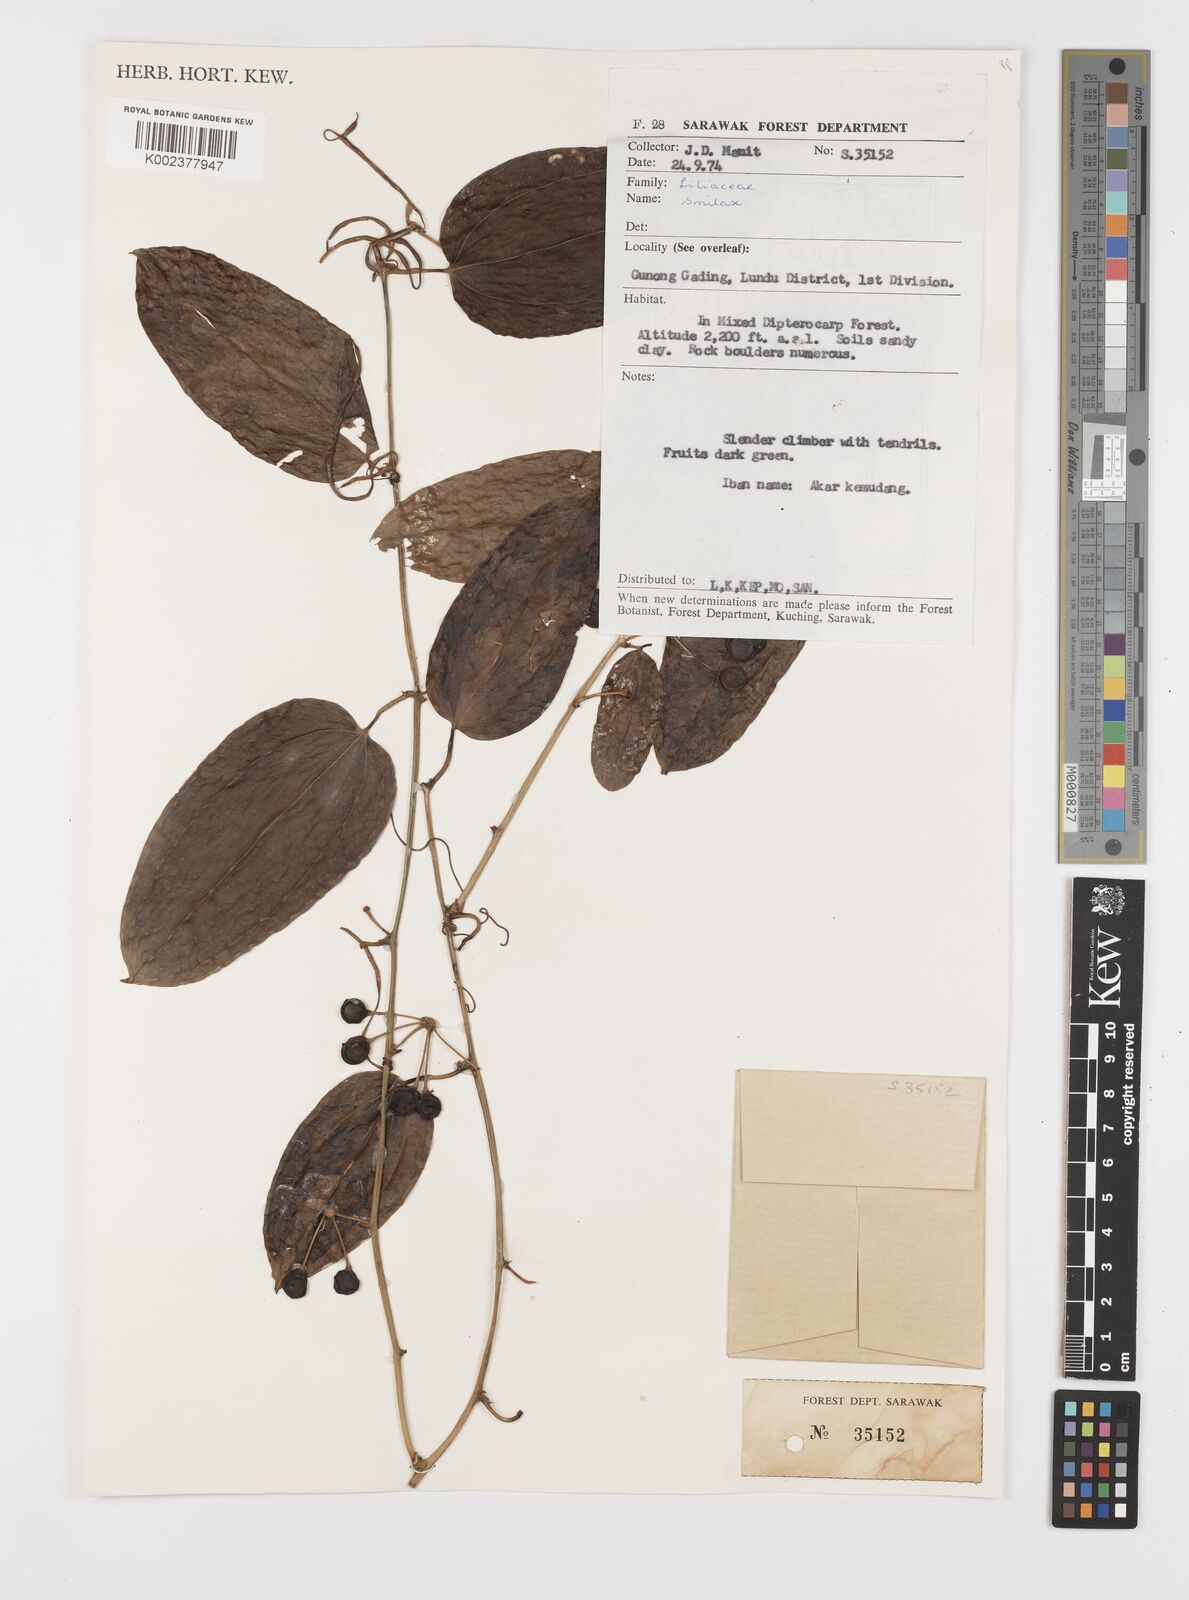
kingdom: Plantae
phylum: Tracheophyta
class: Liliopsida
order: Liliales
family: Smilacaceae
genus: Smilax
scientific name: Smilax
